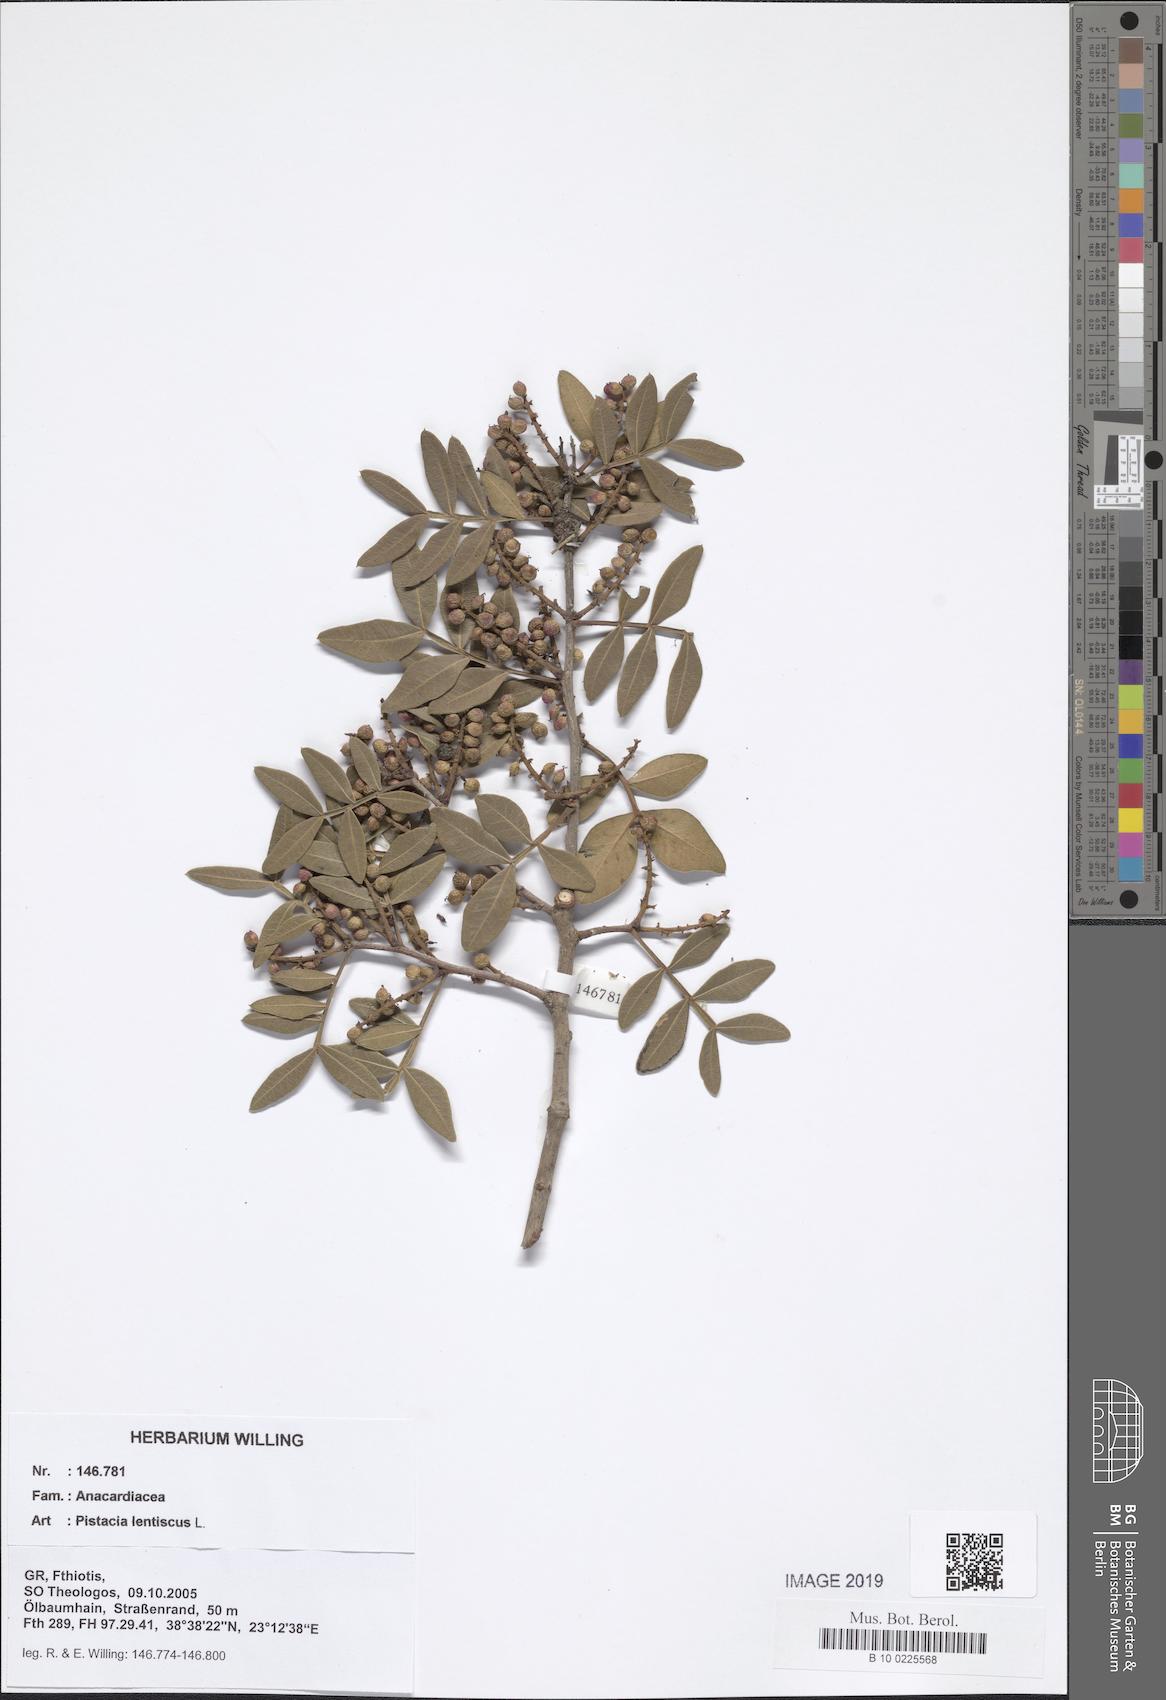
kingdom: Plantae
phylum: Tracheophyta
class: Magnoliopsida
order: Sapindales
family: Anacardiaceae
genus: Pistacia
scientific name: Pistacia lentiscus
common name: Lentisk
